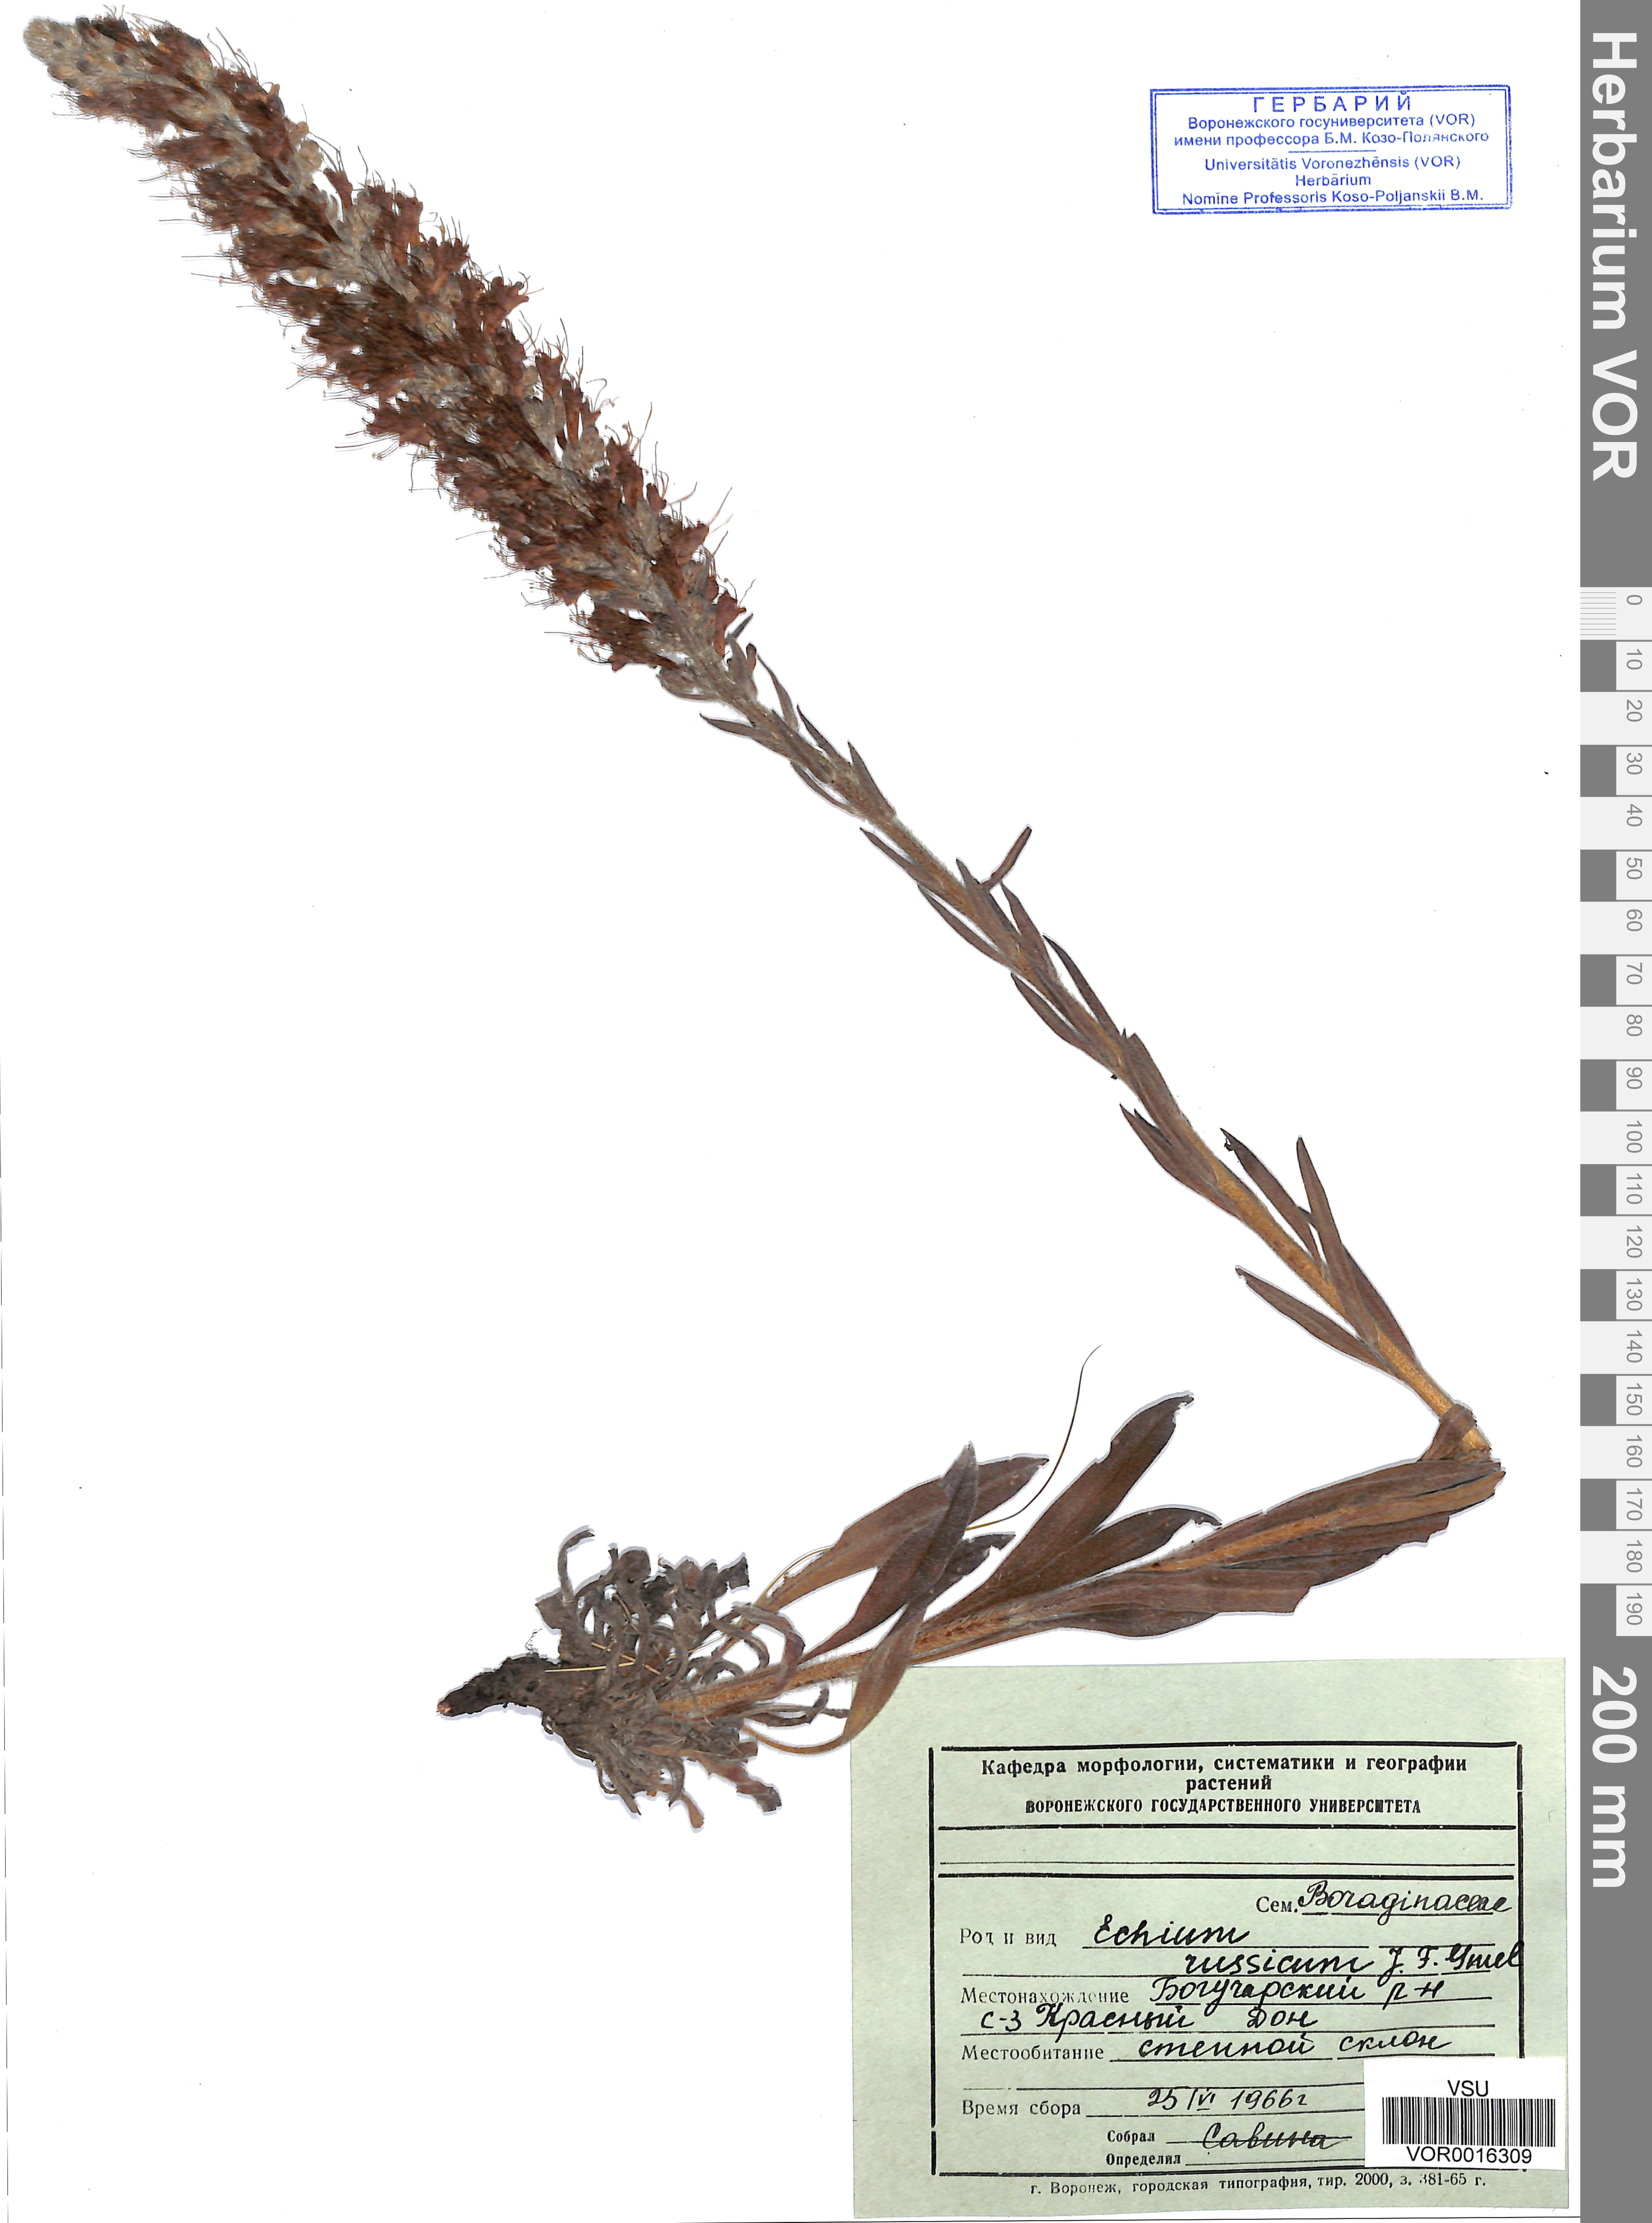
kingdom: Plantae
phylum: Tracheophyta
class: Magnoliopsida
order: Boraginales
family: Boraginaceae
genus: Pontechium
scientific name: Pontechium maculatum
